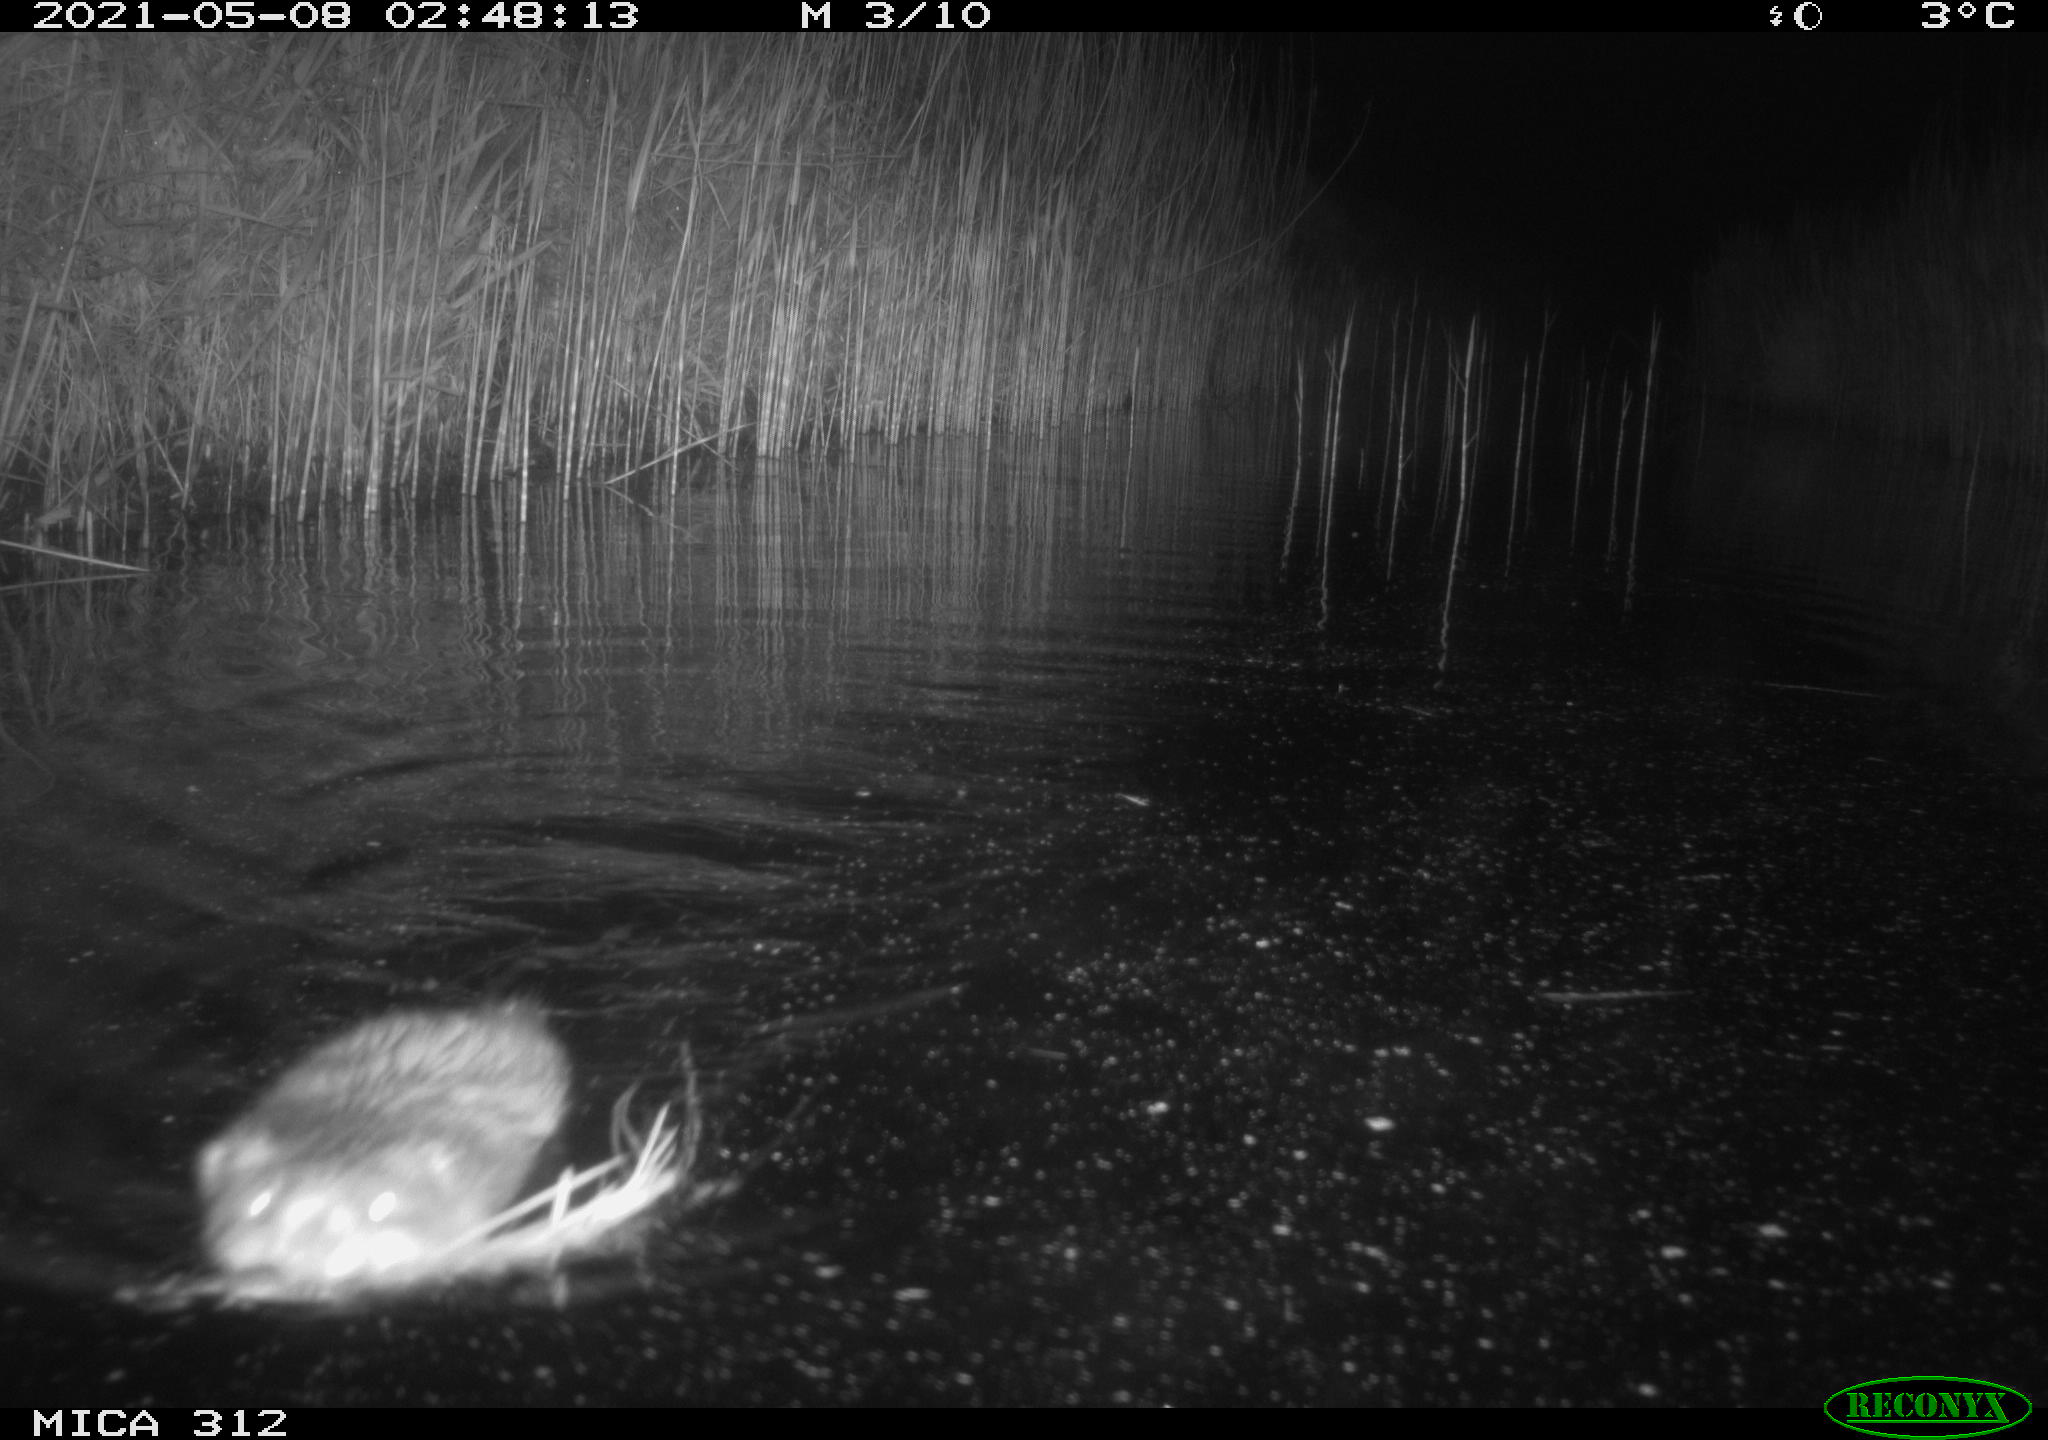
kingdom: Animalia
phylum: Chordata
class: Mammalia
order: Rodentia
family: Cricetidae
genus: Ondatra
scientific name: Ondatra zibethicus
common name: Muskrat
